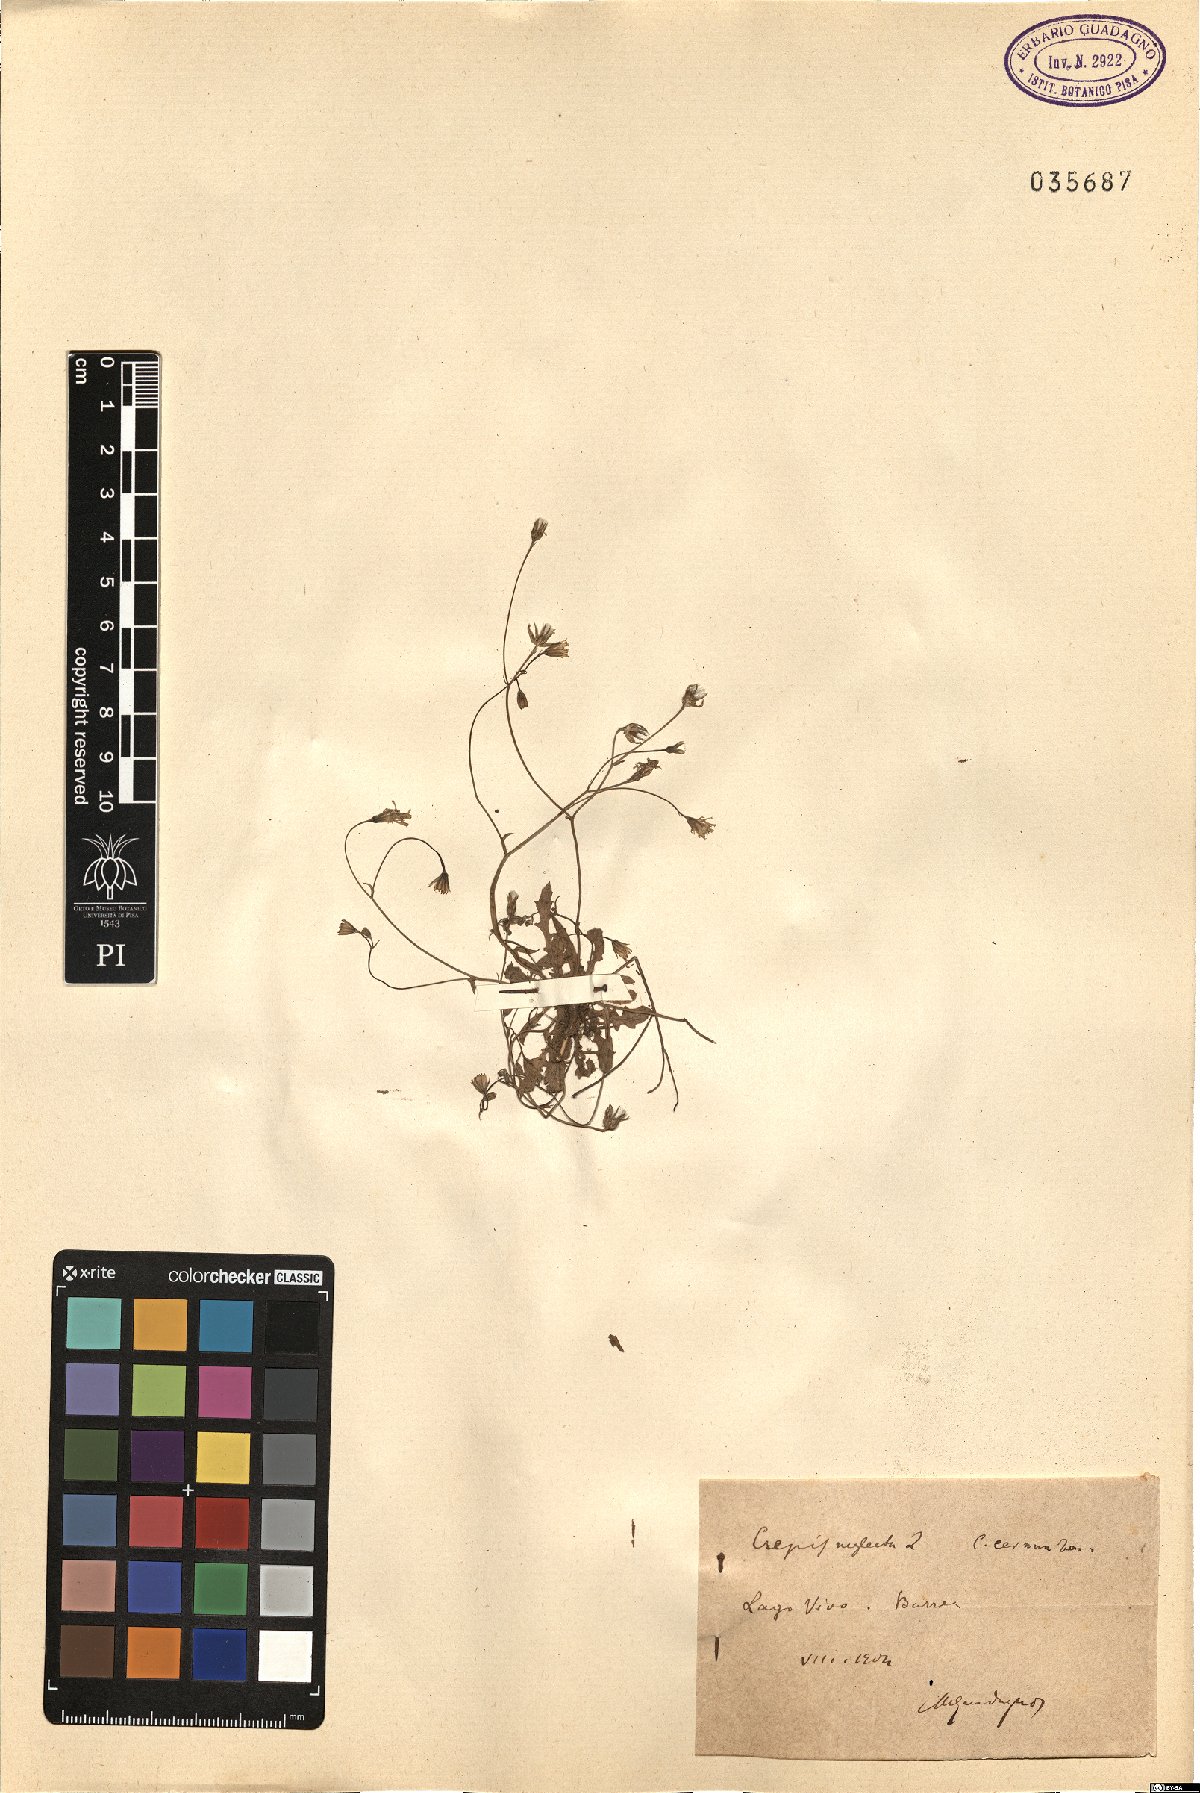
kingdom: Plantae
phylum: Tracheophyta
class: Magnoliopsida
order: Asterales
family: Asteraceae
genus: Crepis
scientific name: Crepis neglecta
